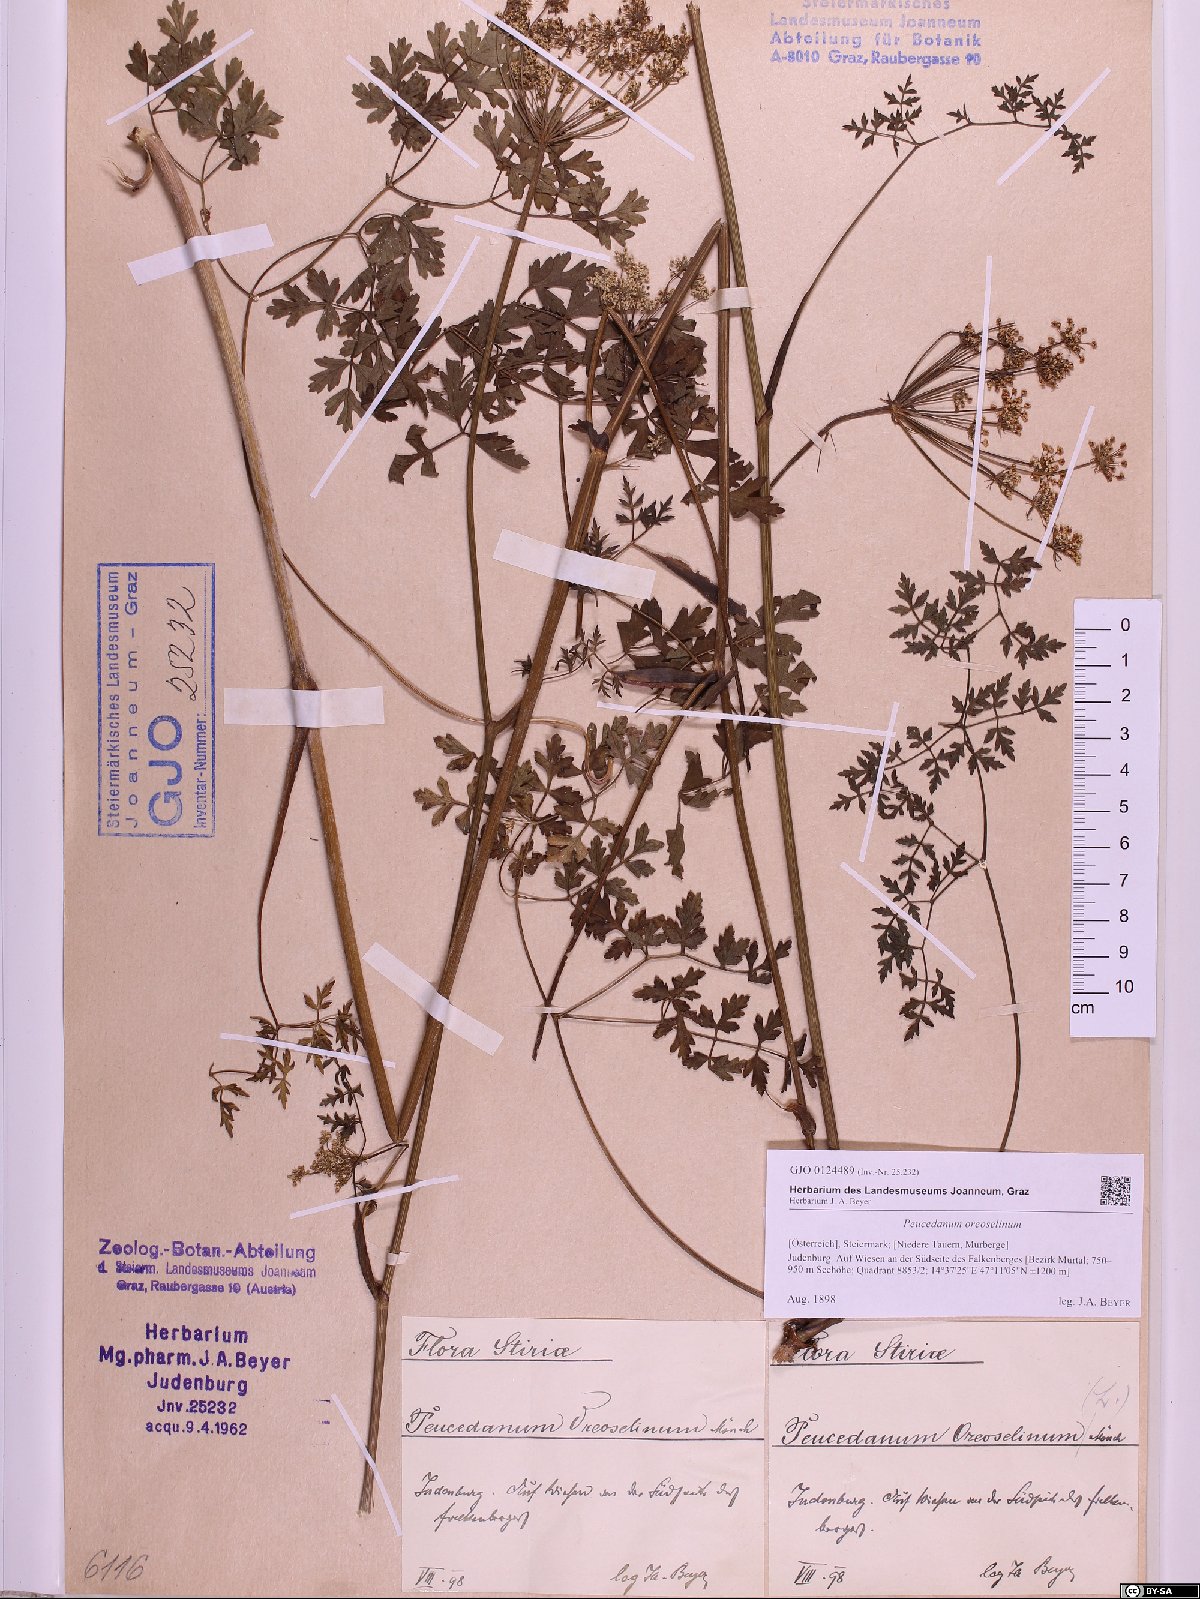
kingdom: Plantae
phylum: Tracheophyta
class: Magnoliopsida
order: Apiales
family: Apiaceae
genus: Oreoselinum
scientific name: Oreoselinum nigrum
